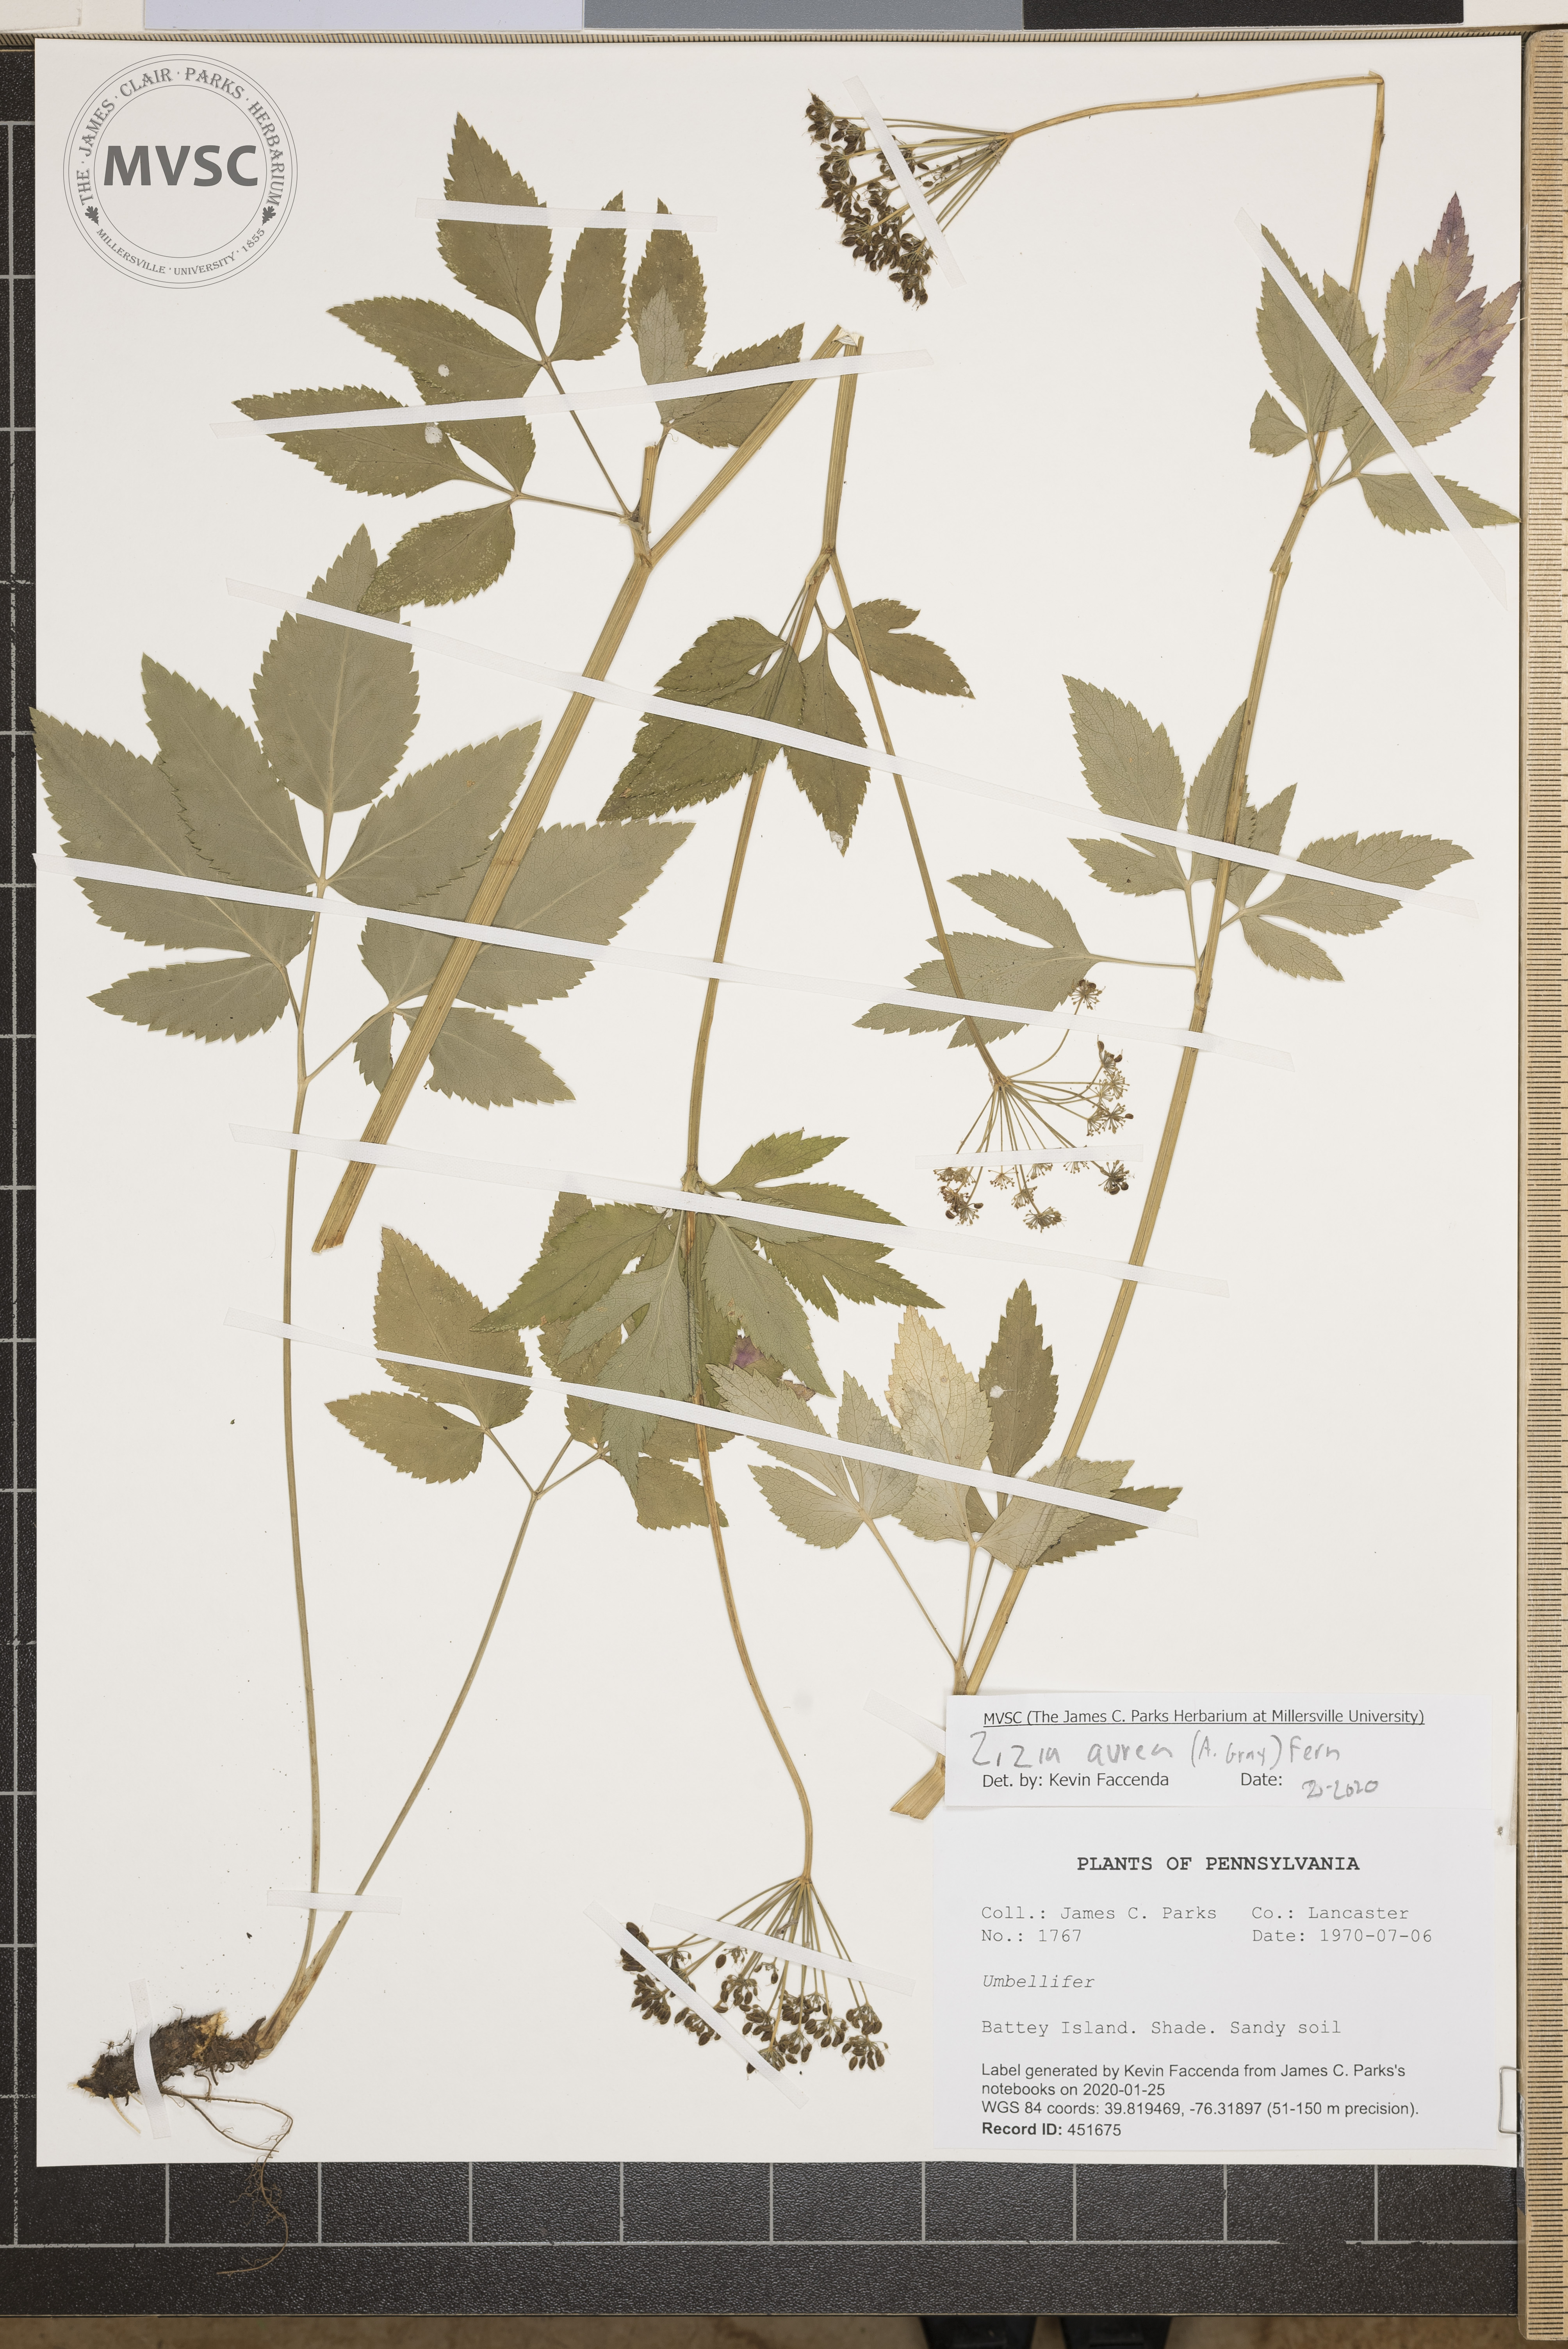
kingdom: Plantae
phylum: Tracheophyta
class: Magnoliopsida
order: Apiales
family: Apiaceae
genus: Zizia
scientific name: Zizia aurea
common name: Golden alexanders
